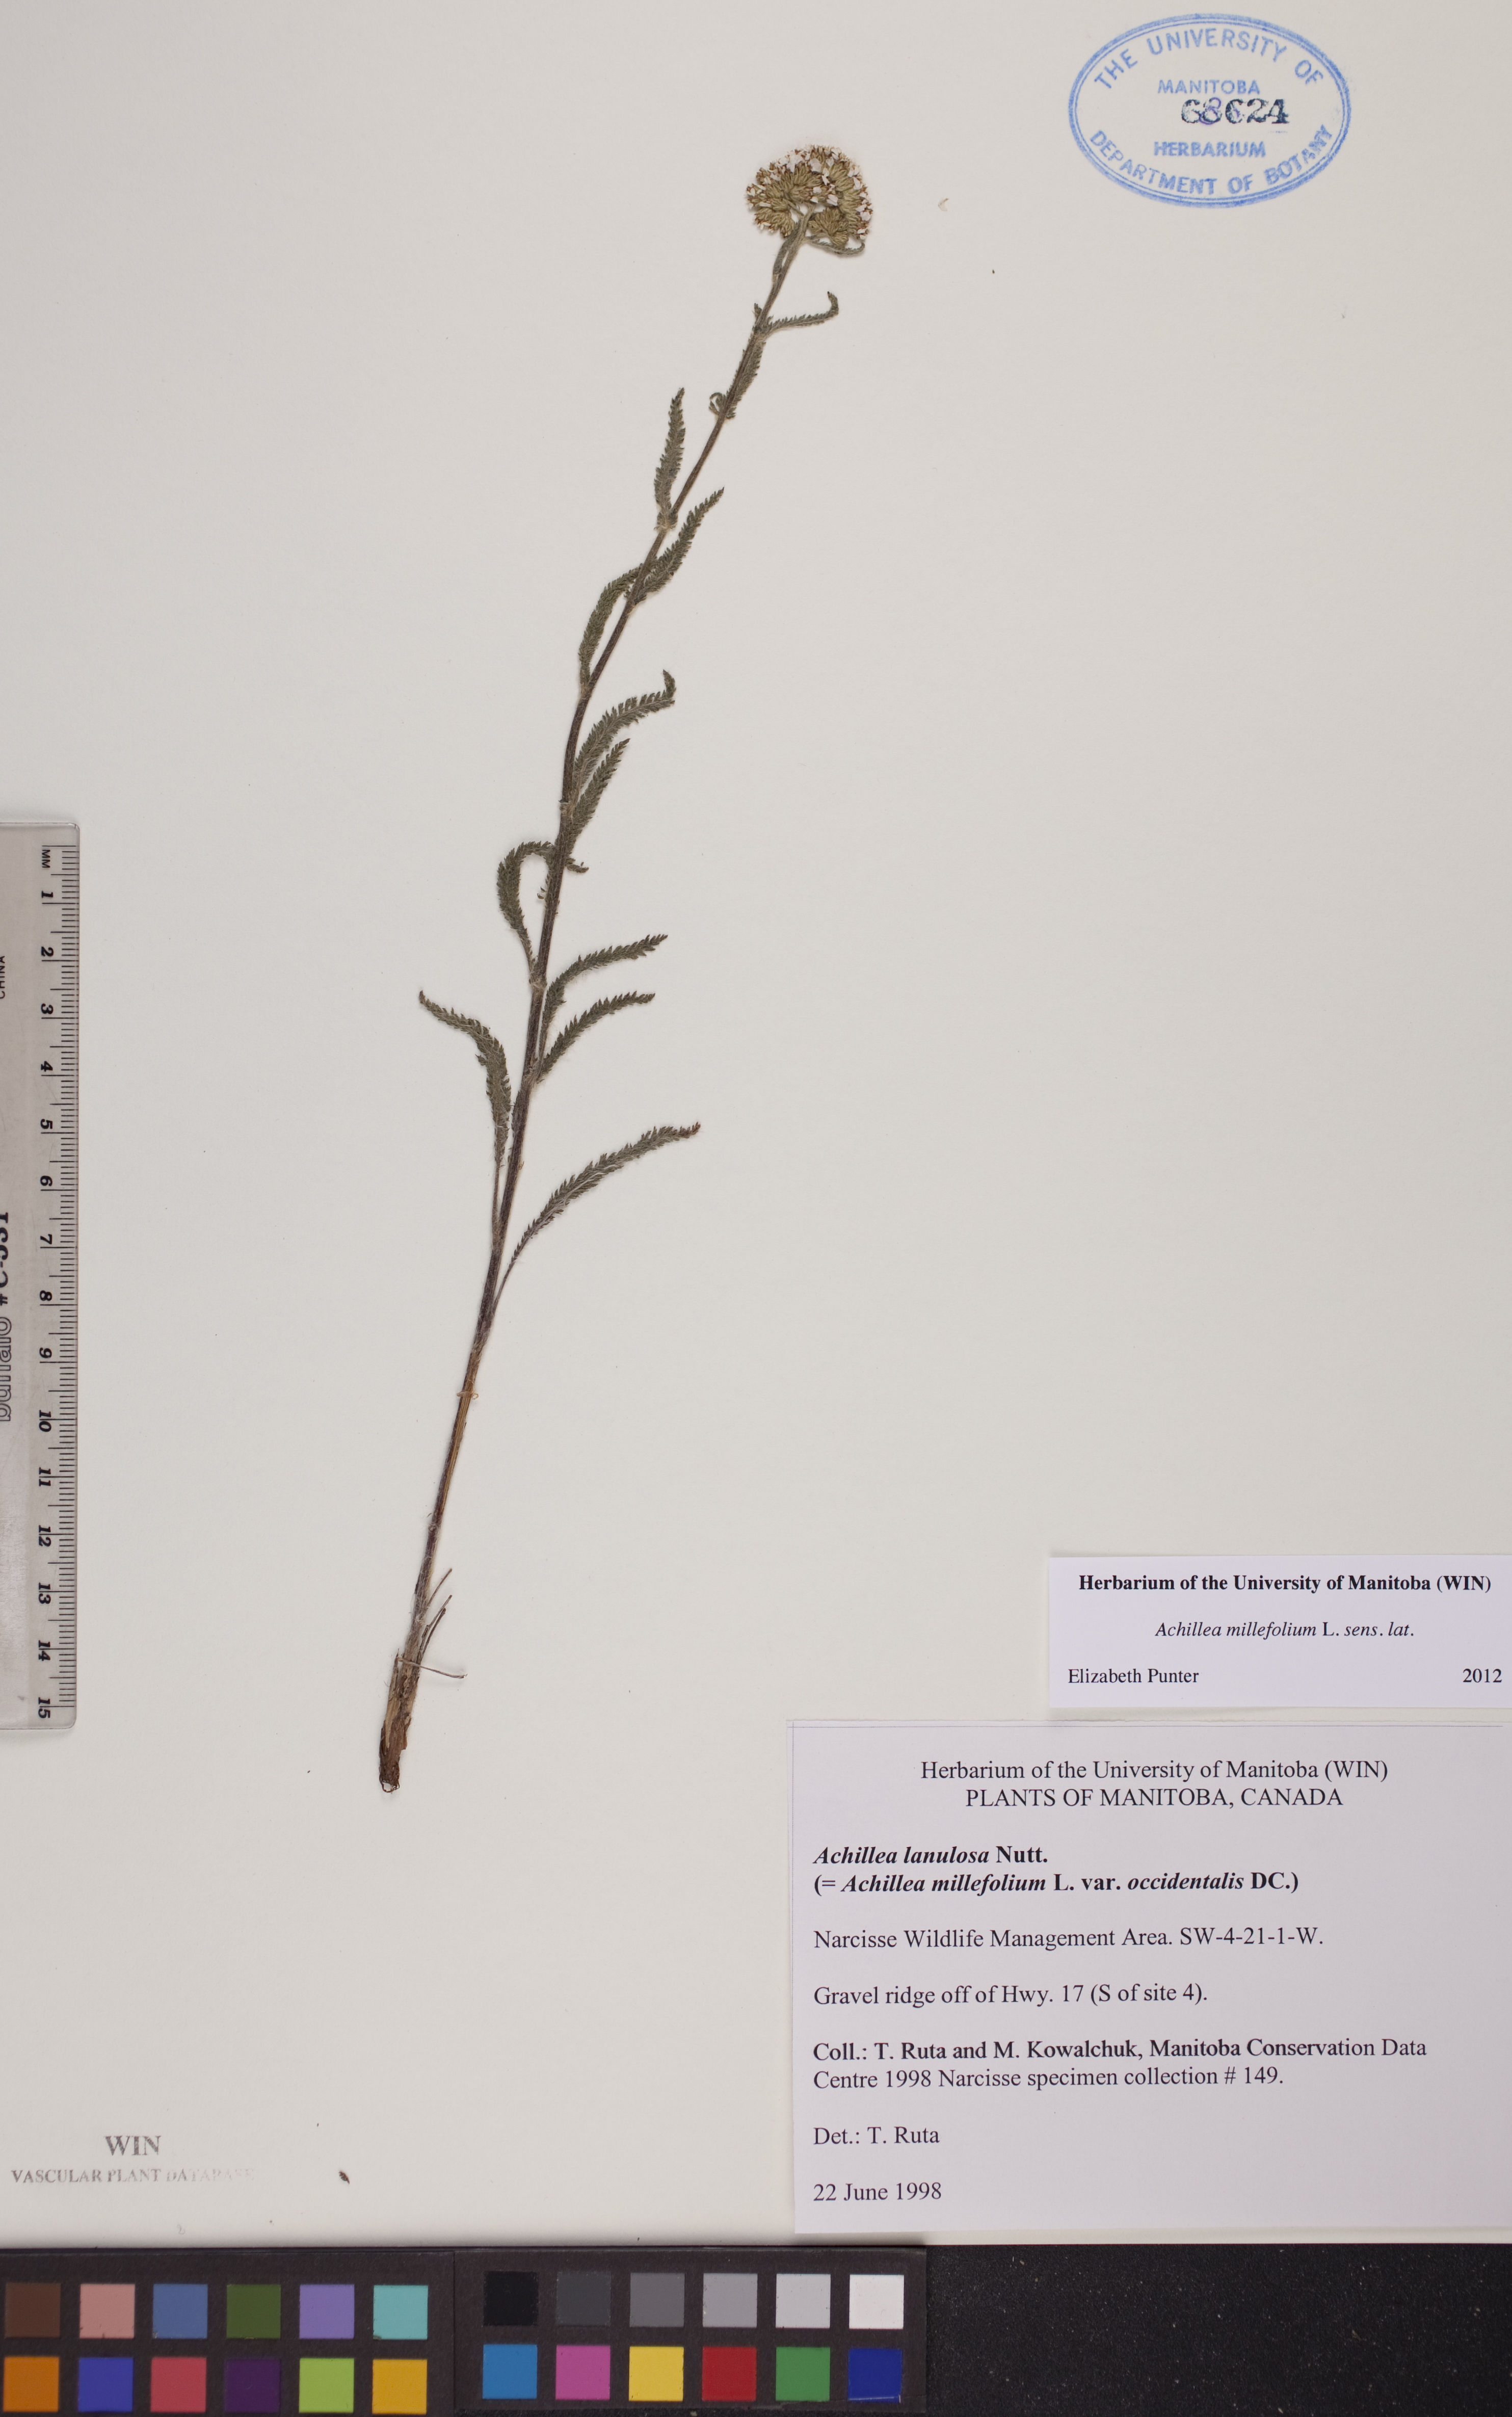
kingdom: Plantae
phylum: Tracheophyta
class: Magnoliopsida
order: Asterales
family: Asteraceae
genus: Achillea
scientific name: Achillea millefolium
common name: Yarrow
